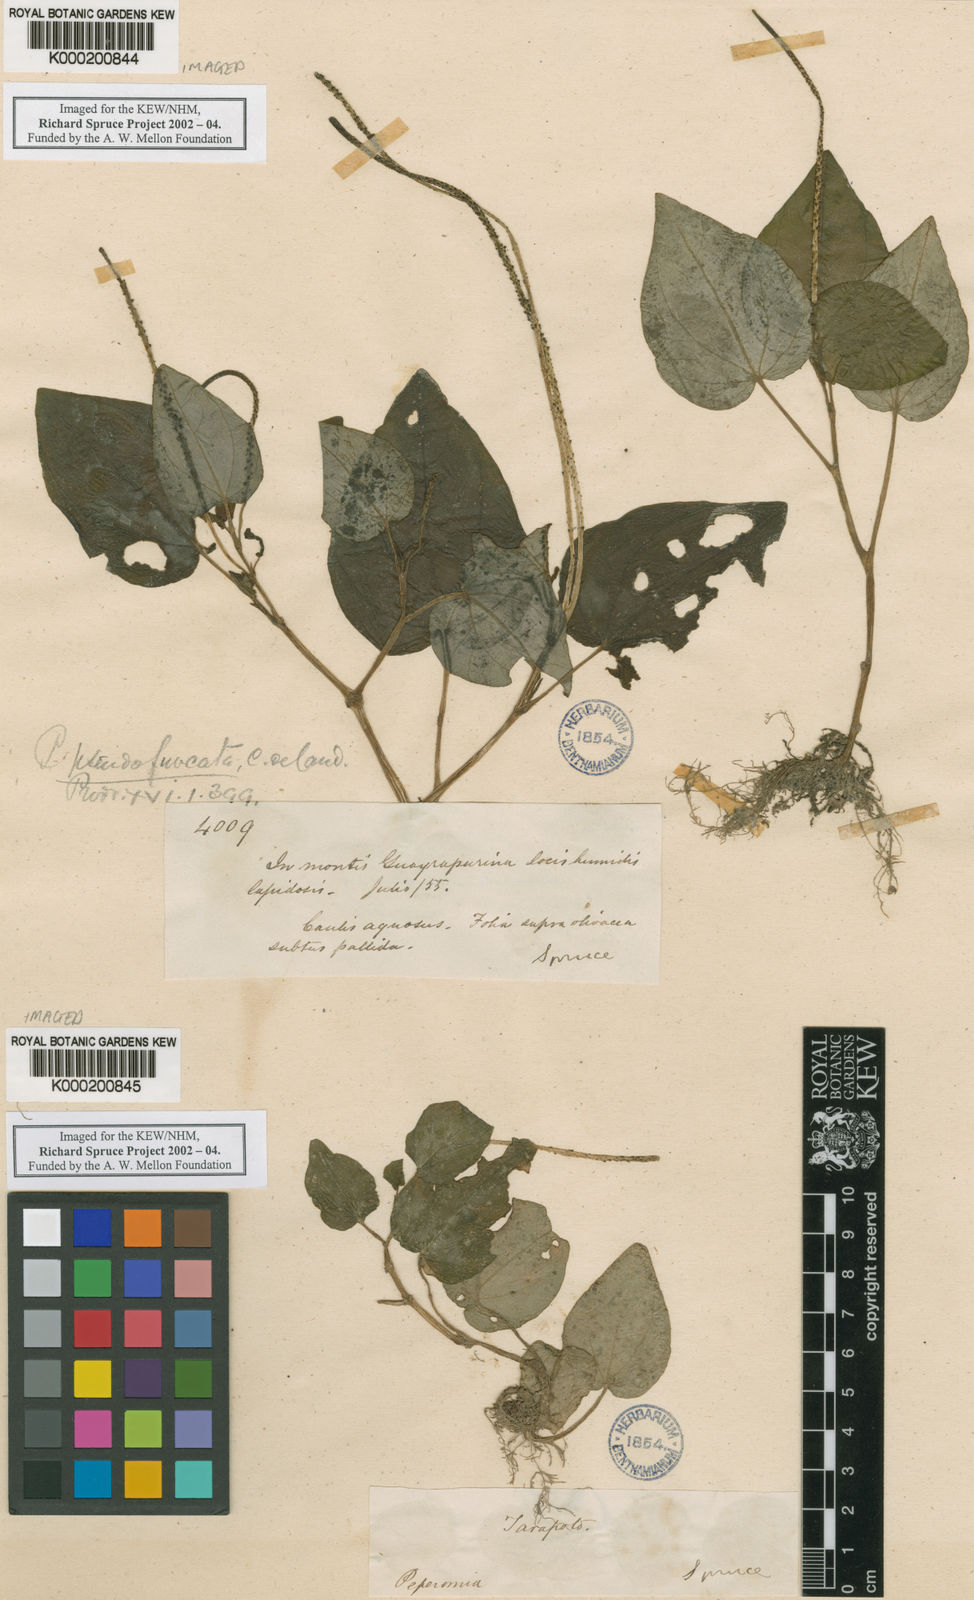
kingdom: Plantae
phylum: Tracheophyta
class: Magnoliopsida
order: Piperales
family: Piperaceae
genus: Peperomia
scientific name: Peperomia pseudofurcata
